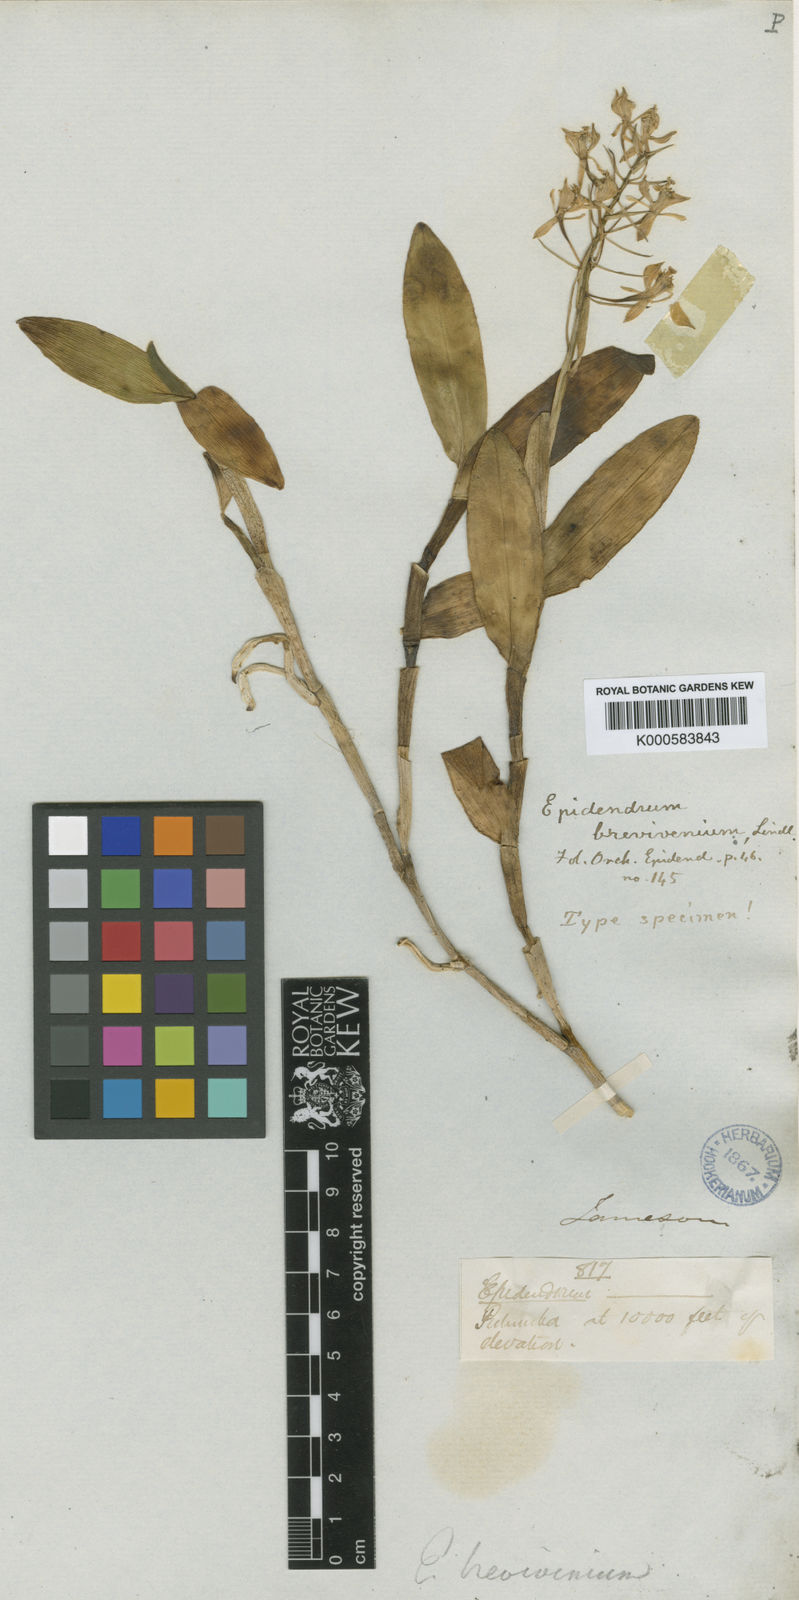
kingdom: Plantae
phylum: Tracheophyta
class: Liliopsida
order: Asparagales
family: Orchidaceae
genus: Epidendrum
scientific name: Epidendrum brevivenium
